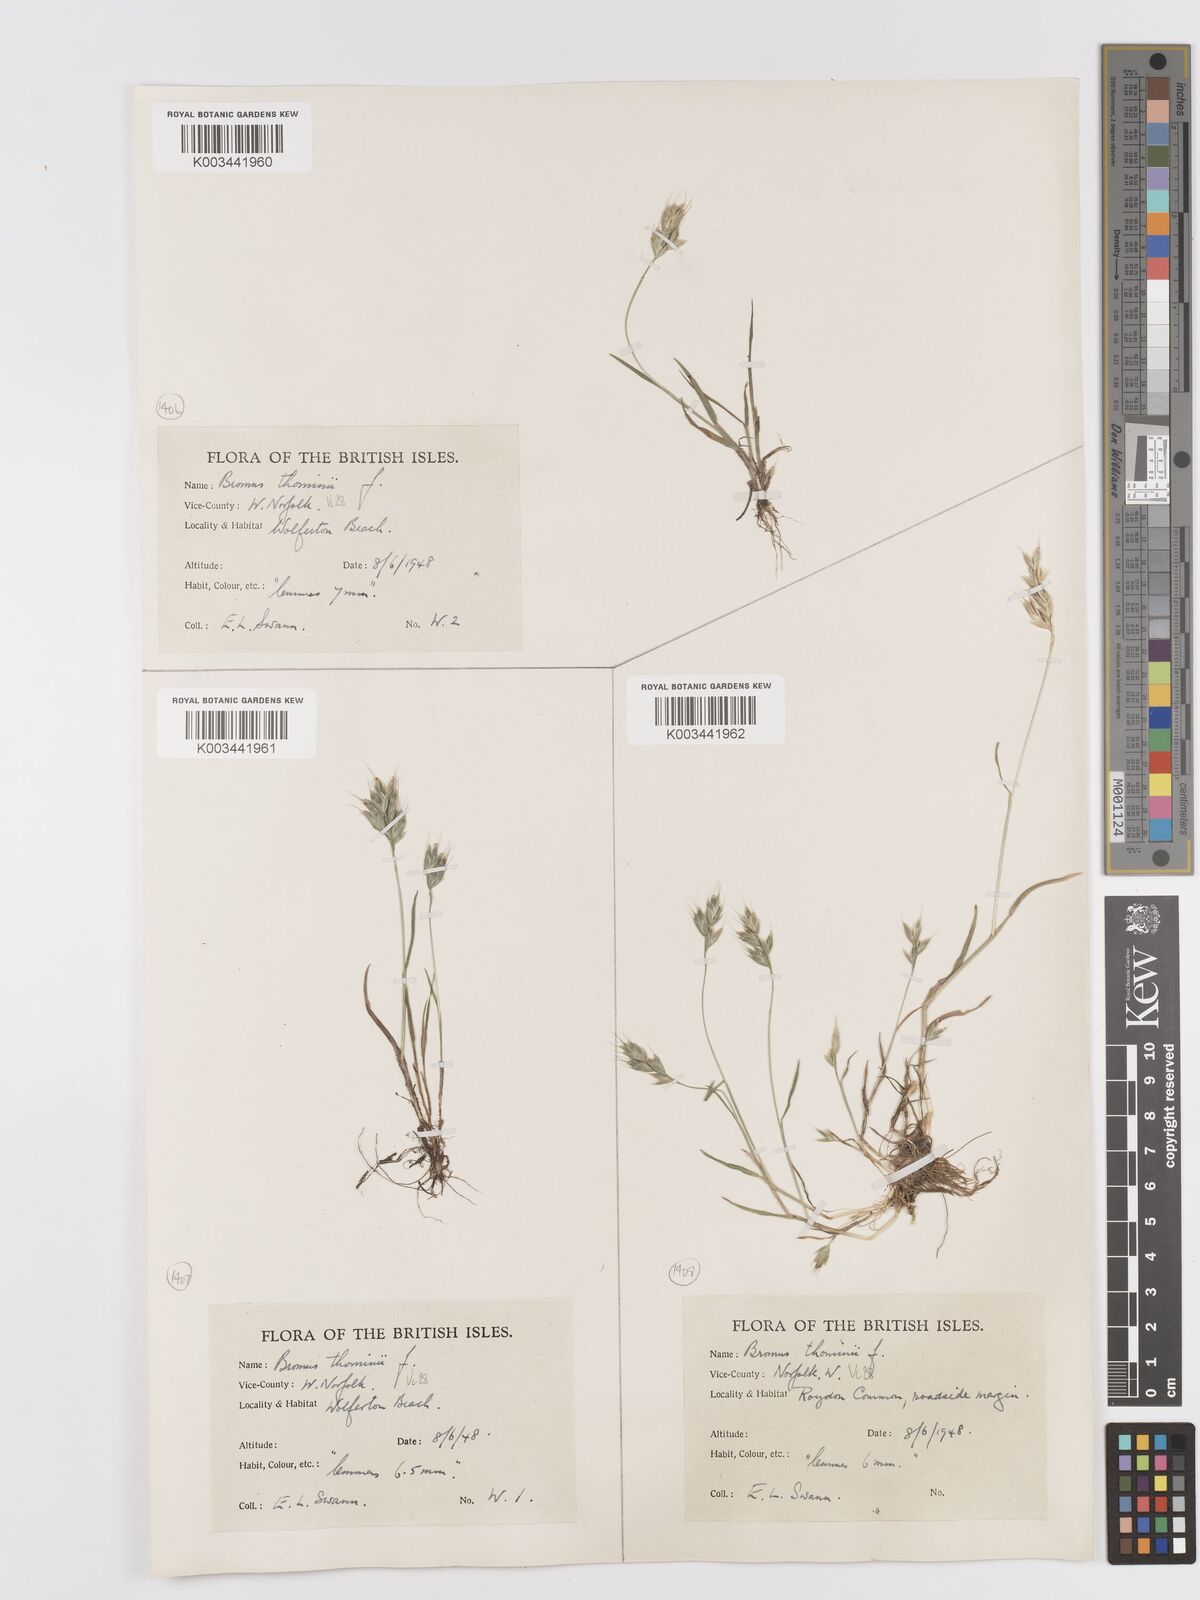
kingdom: Plantae
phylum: Tracheophyta
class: Liliopsida
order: Poales
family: Poaceae
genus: Bromus
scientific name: Bromus hordeaceus
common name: Soft brome
